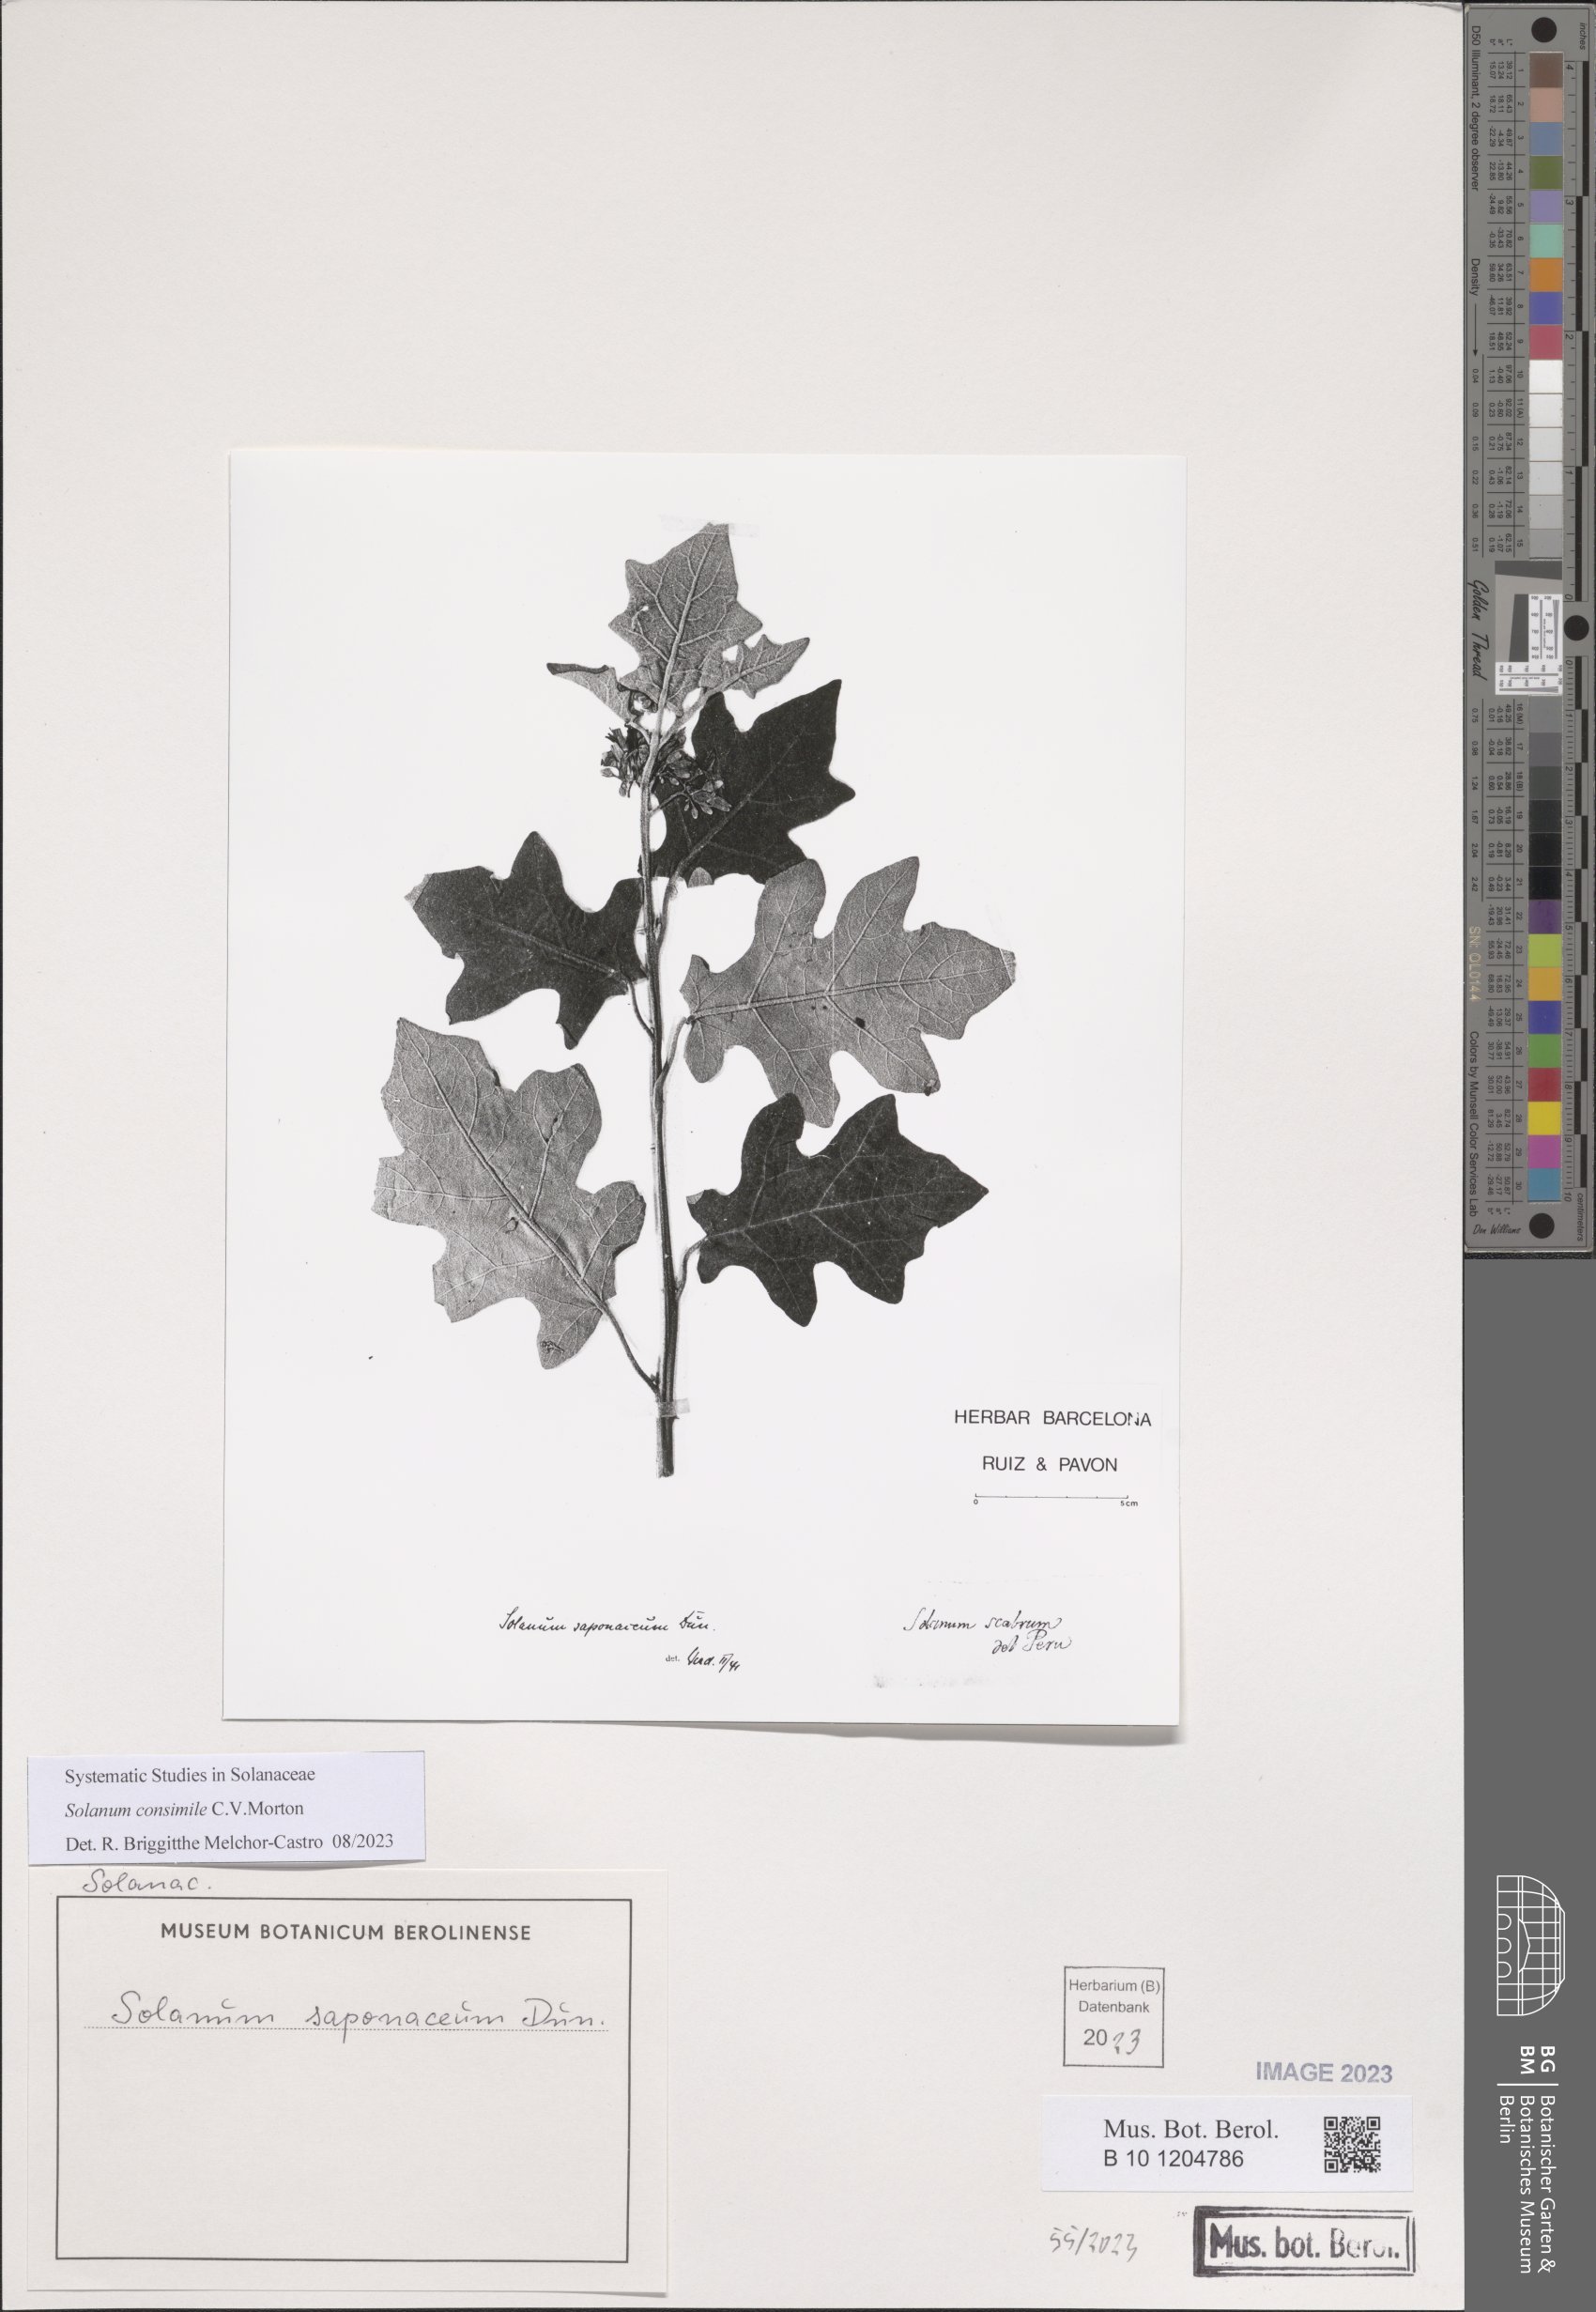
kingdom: Plantae
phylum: Tracheophyta
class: Magnoliopsida
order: Solanales
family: Solanaceae
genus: Solanum
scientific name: Solanum consimile
